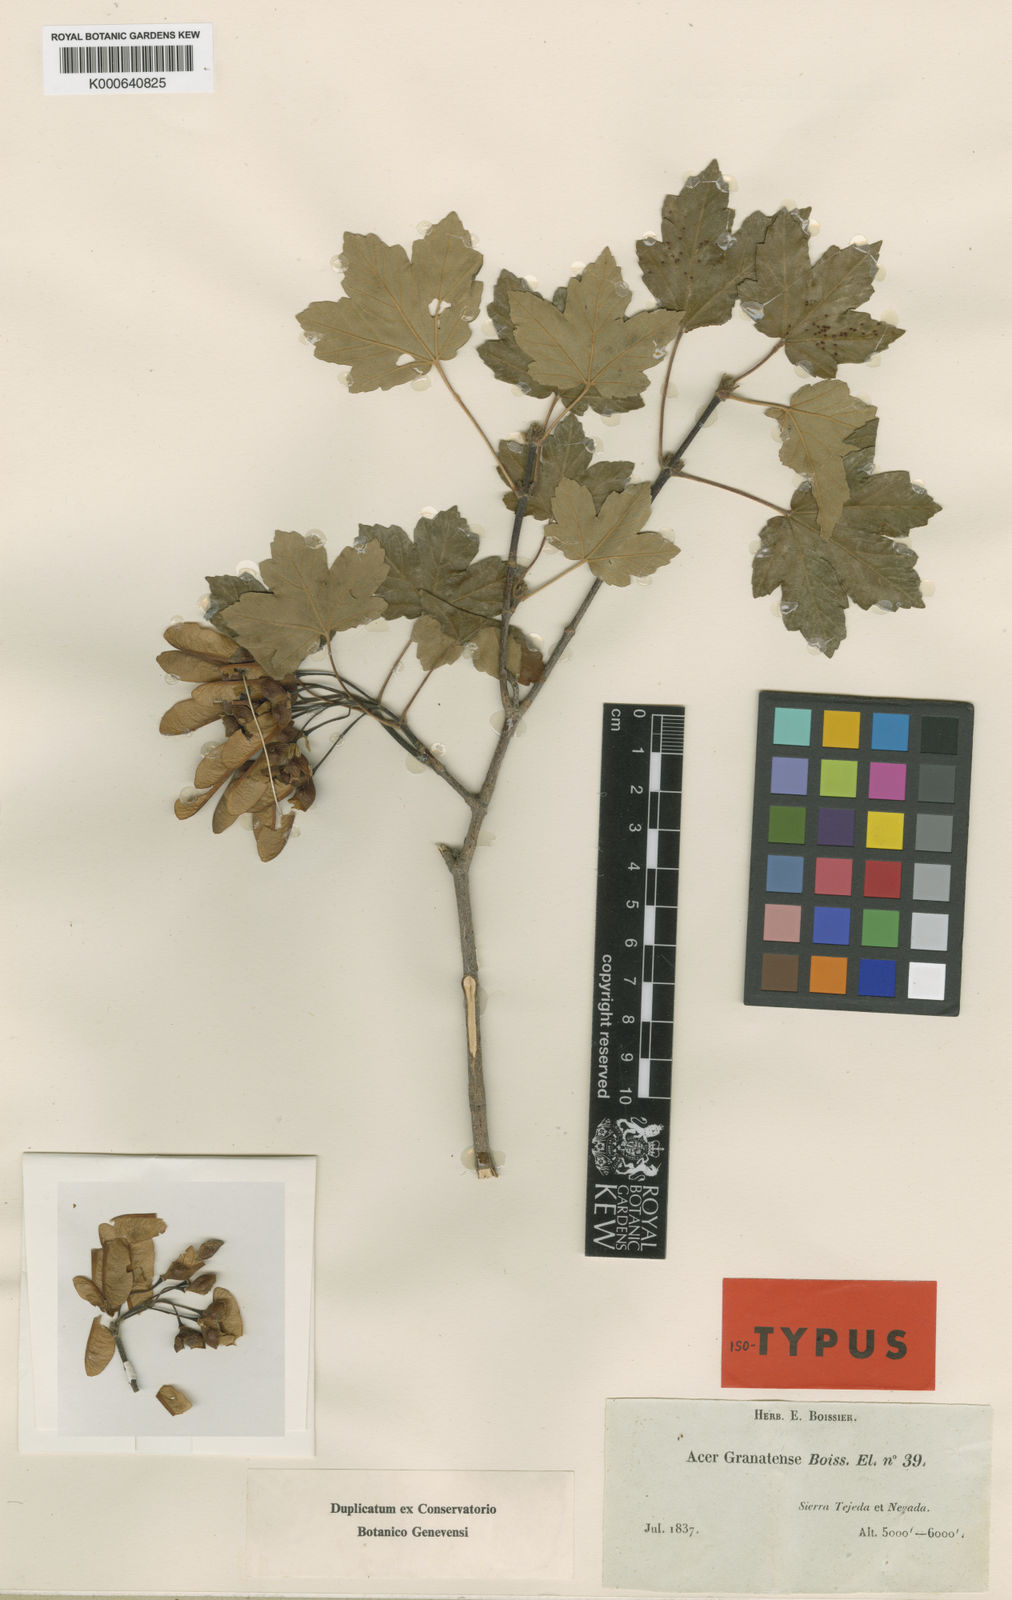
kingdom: Plantae
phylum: Tracheophyta
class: Magnoliopsida
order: Sapindales
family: Sapindaceae
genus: Acer
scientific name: Acer
